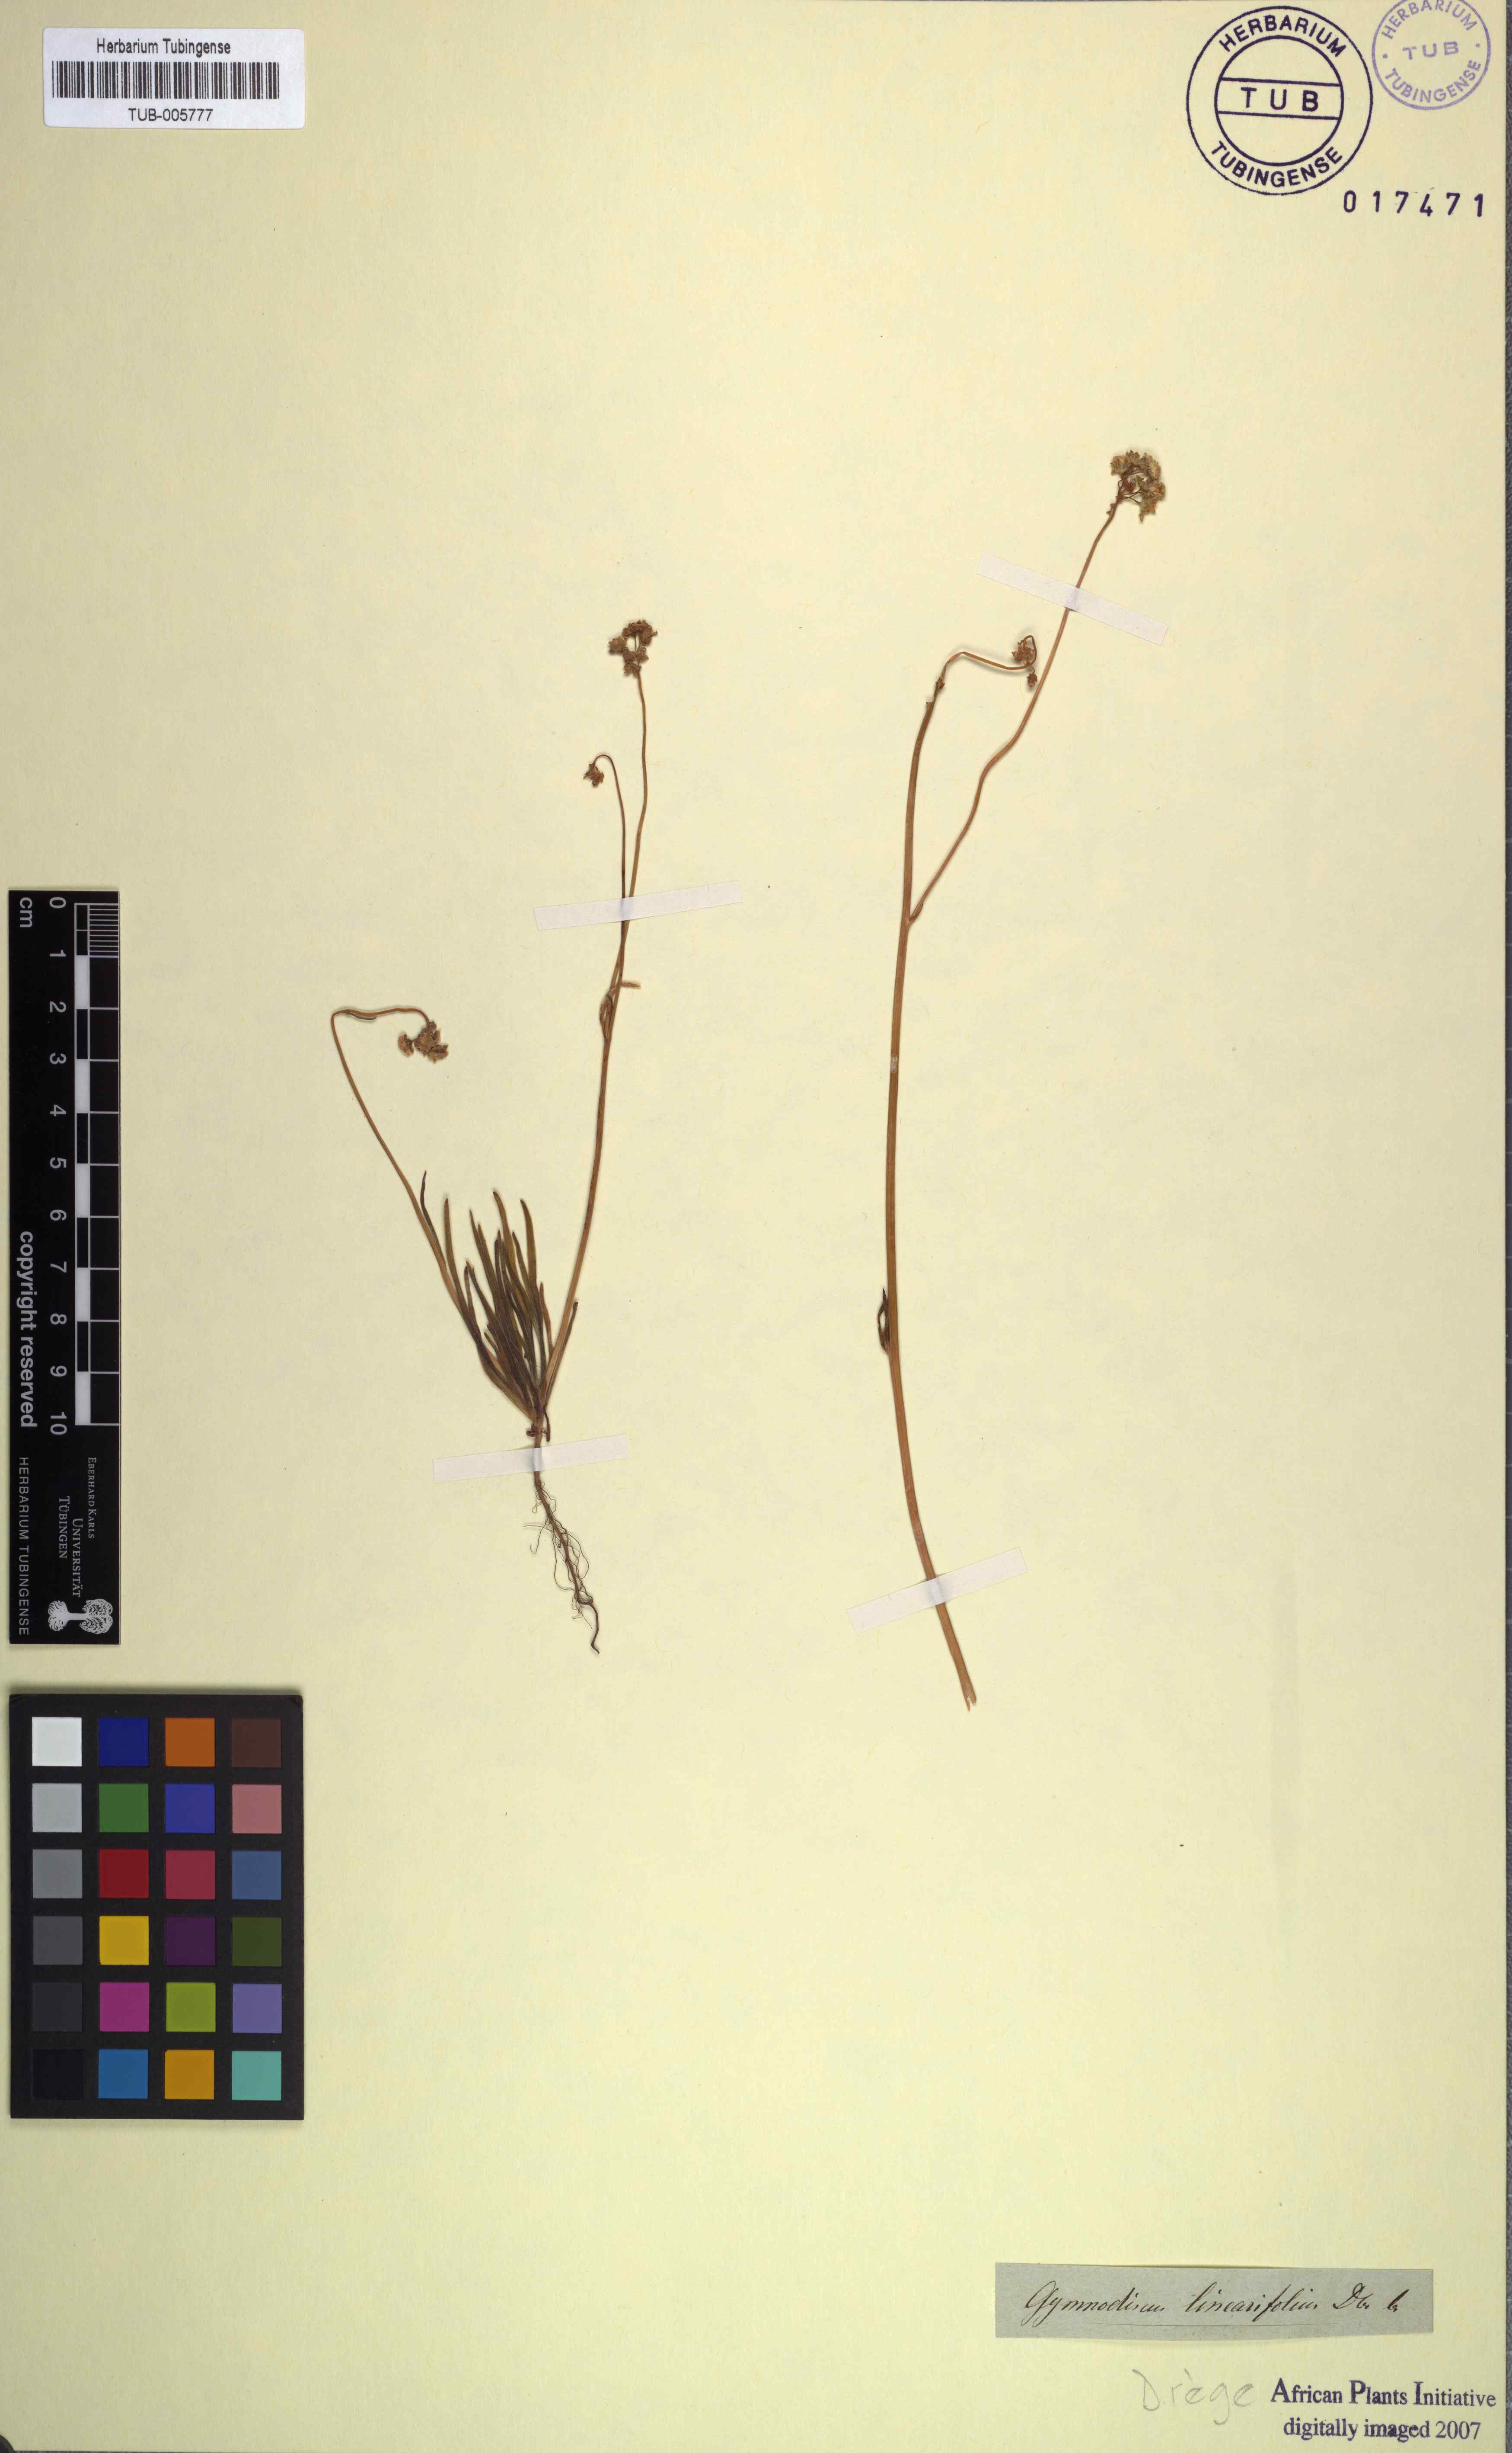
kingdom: Plantae
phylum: Tracheophyta
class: Magnoliopsida
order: Asterales
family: Asteraceae
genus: Gymnodiscus
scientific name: Gymnodiscus linearifolius
